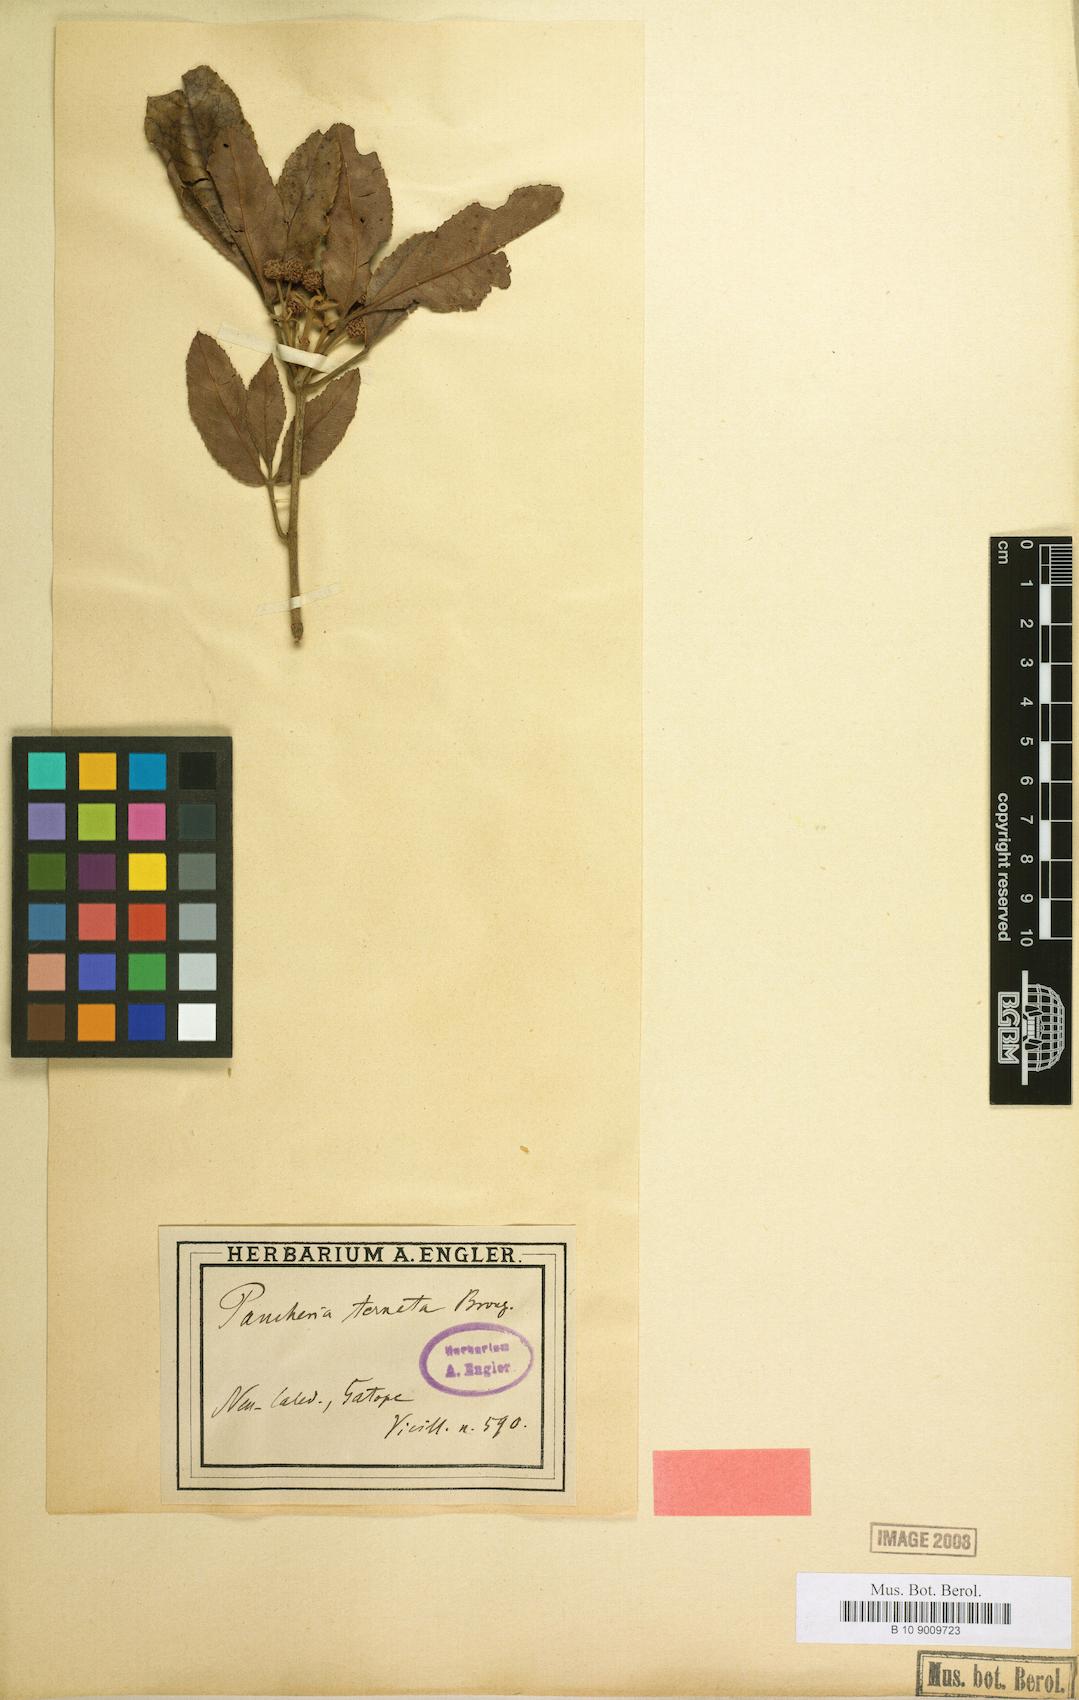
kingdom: Plantae
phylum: Tracheophyta
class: Magnoliopsida
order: Oxalidales
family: Cunoniaceae
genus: Pancheria
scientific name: Pancheria ternata
